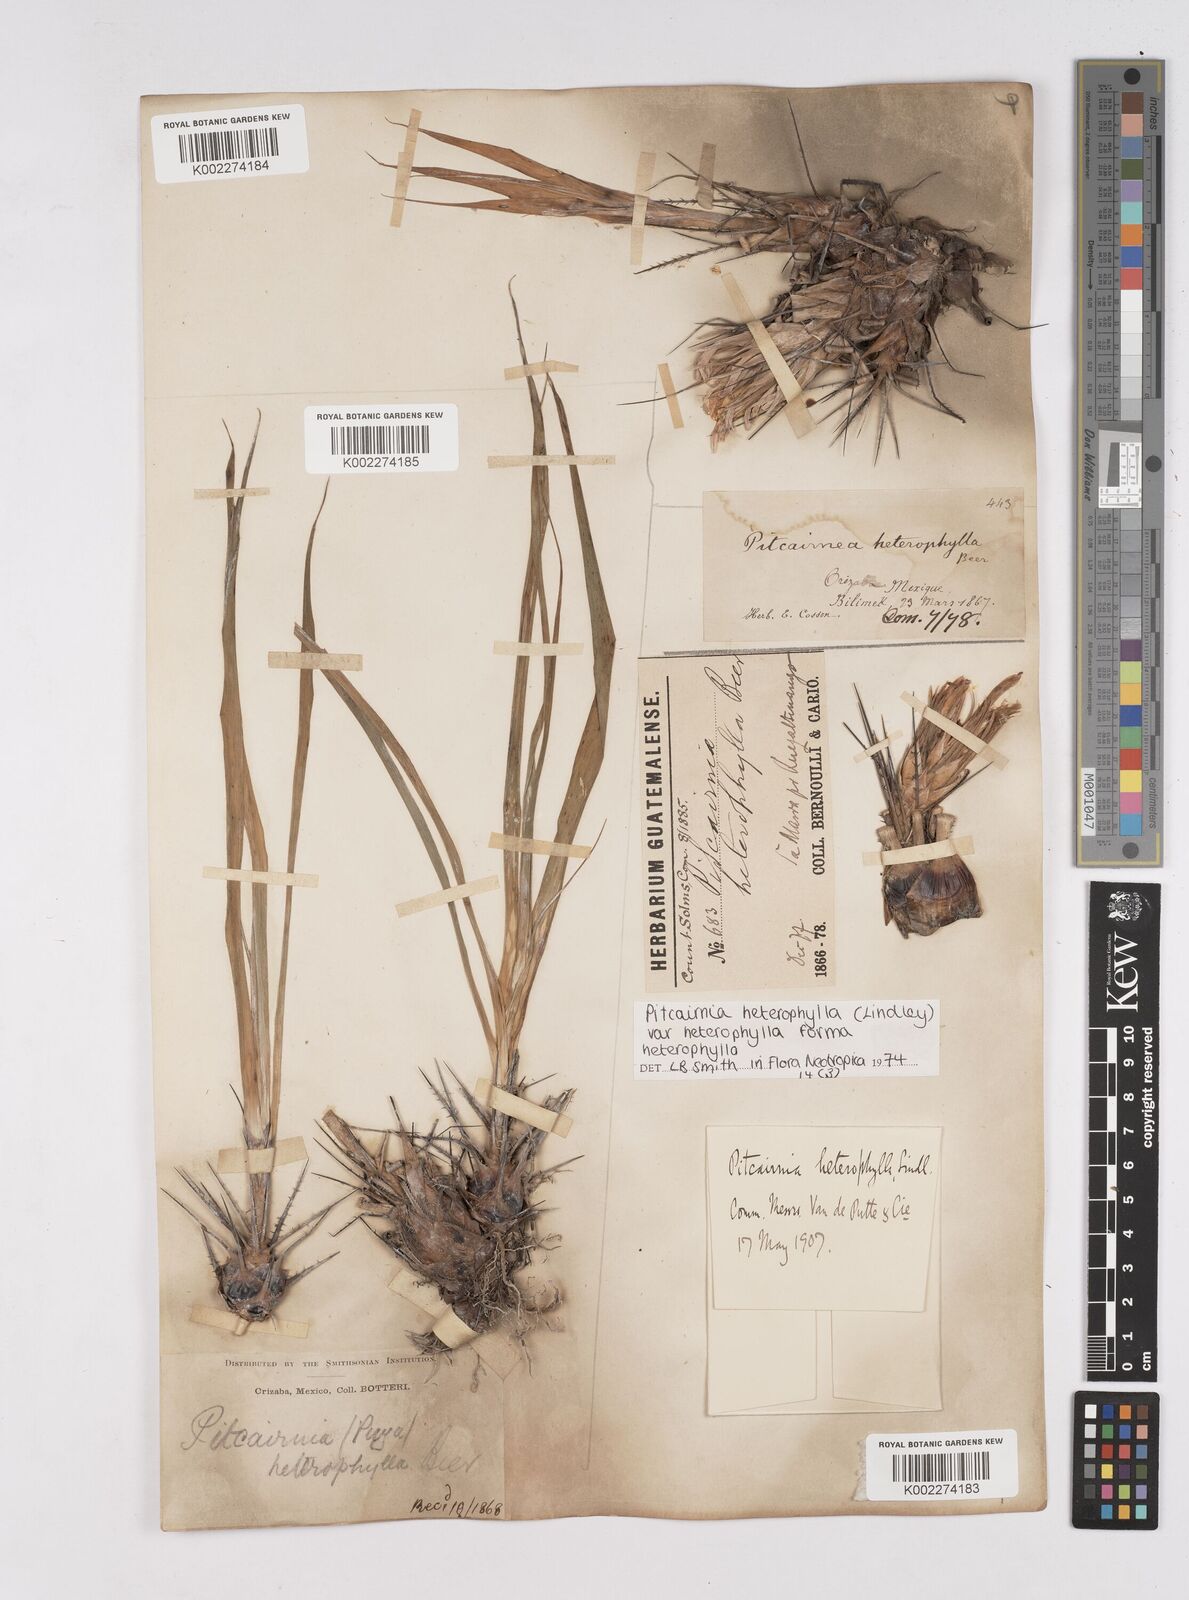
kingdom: Plantae
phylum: Tracheophyta
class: Liliopsida
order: Poales
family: Bromeliaceae
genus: Pitcairnia
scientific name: Pitcairnia heterophylla
